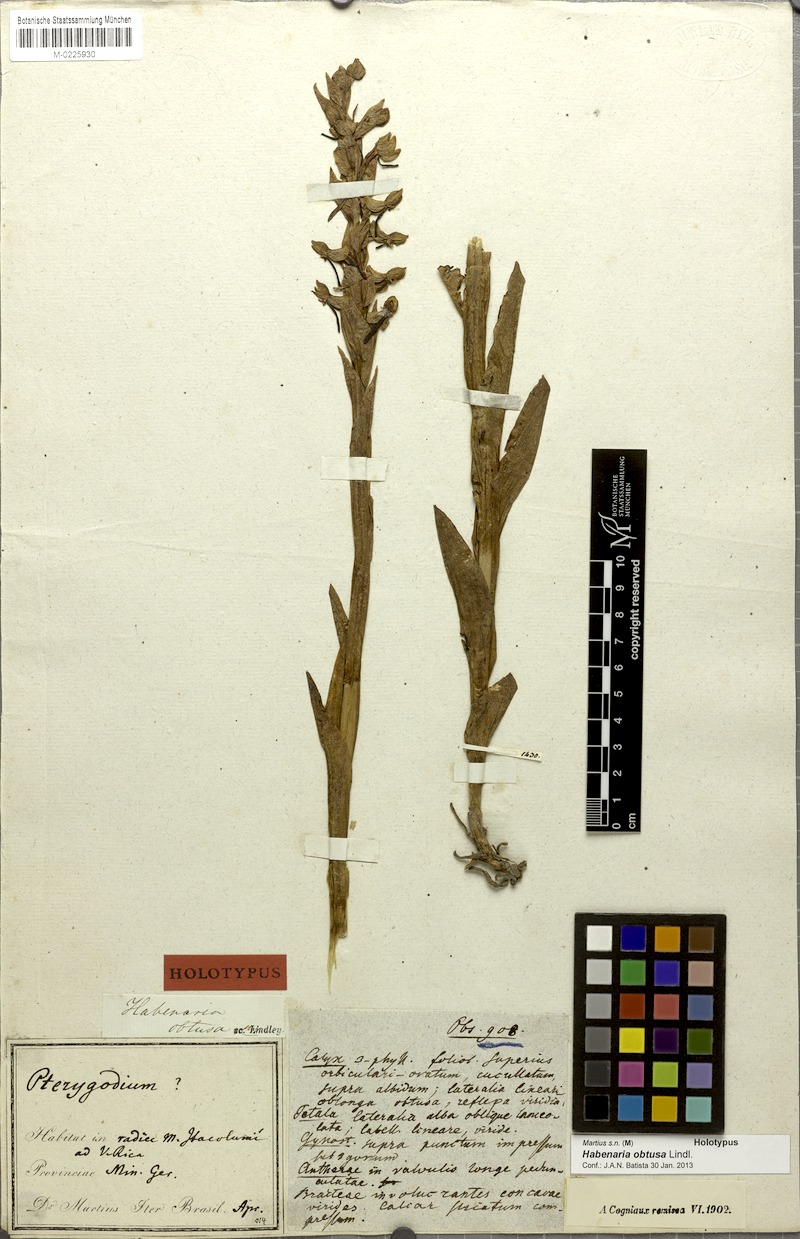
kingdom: Plantae
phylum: Tracheophyta
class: Liliopsida
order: Asparagales
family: Orchidaceae
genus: Habenaria
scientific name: Habenaria obtusa
